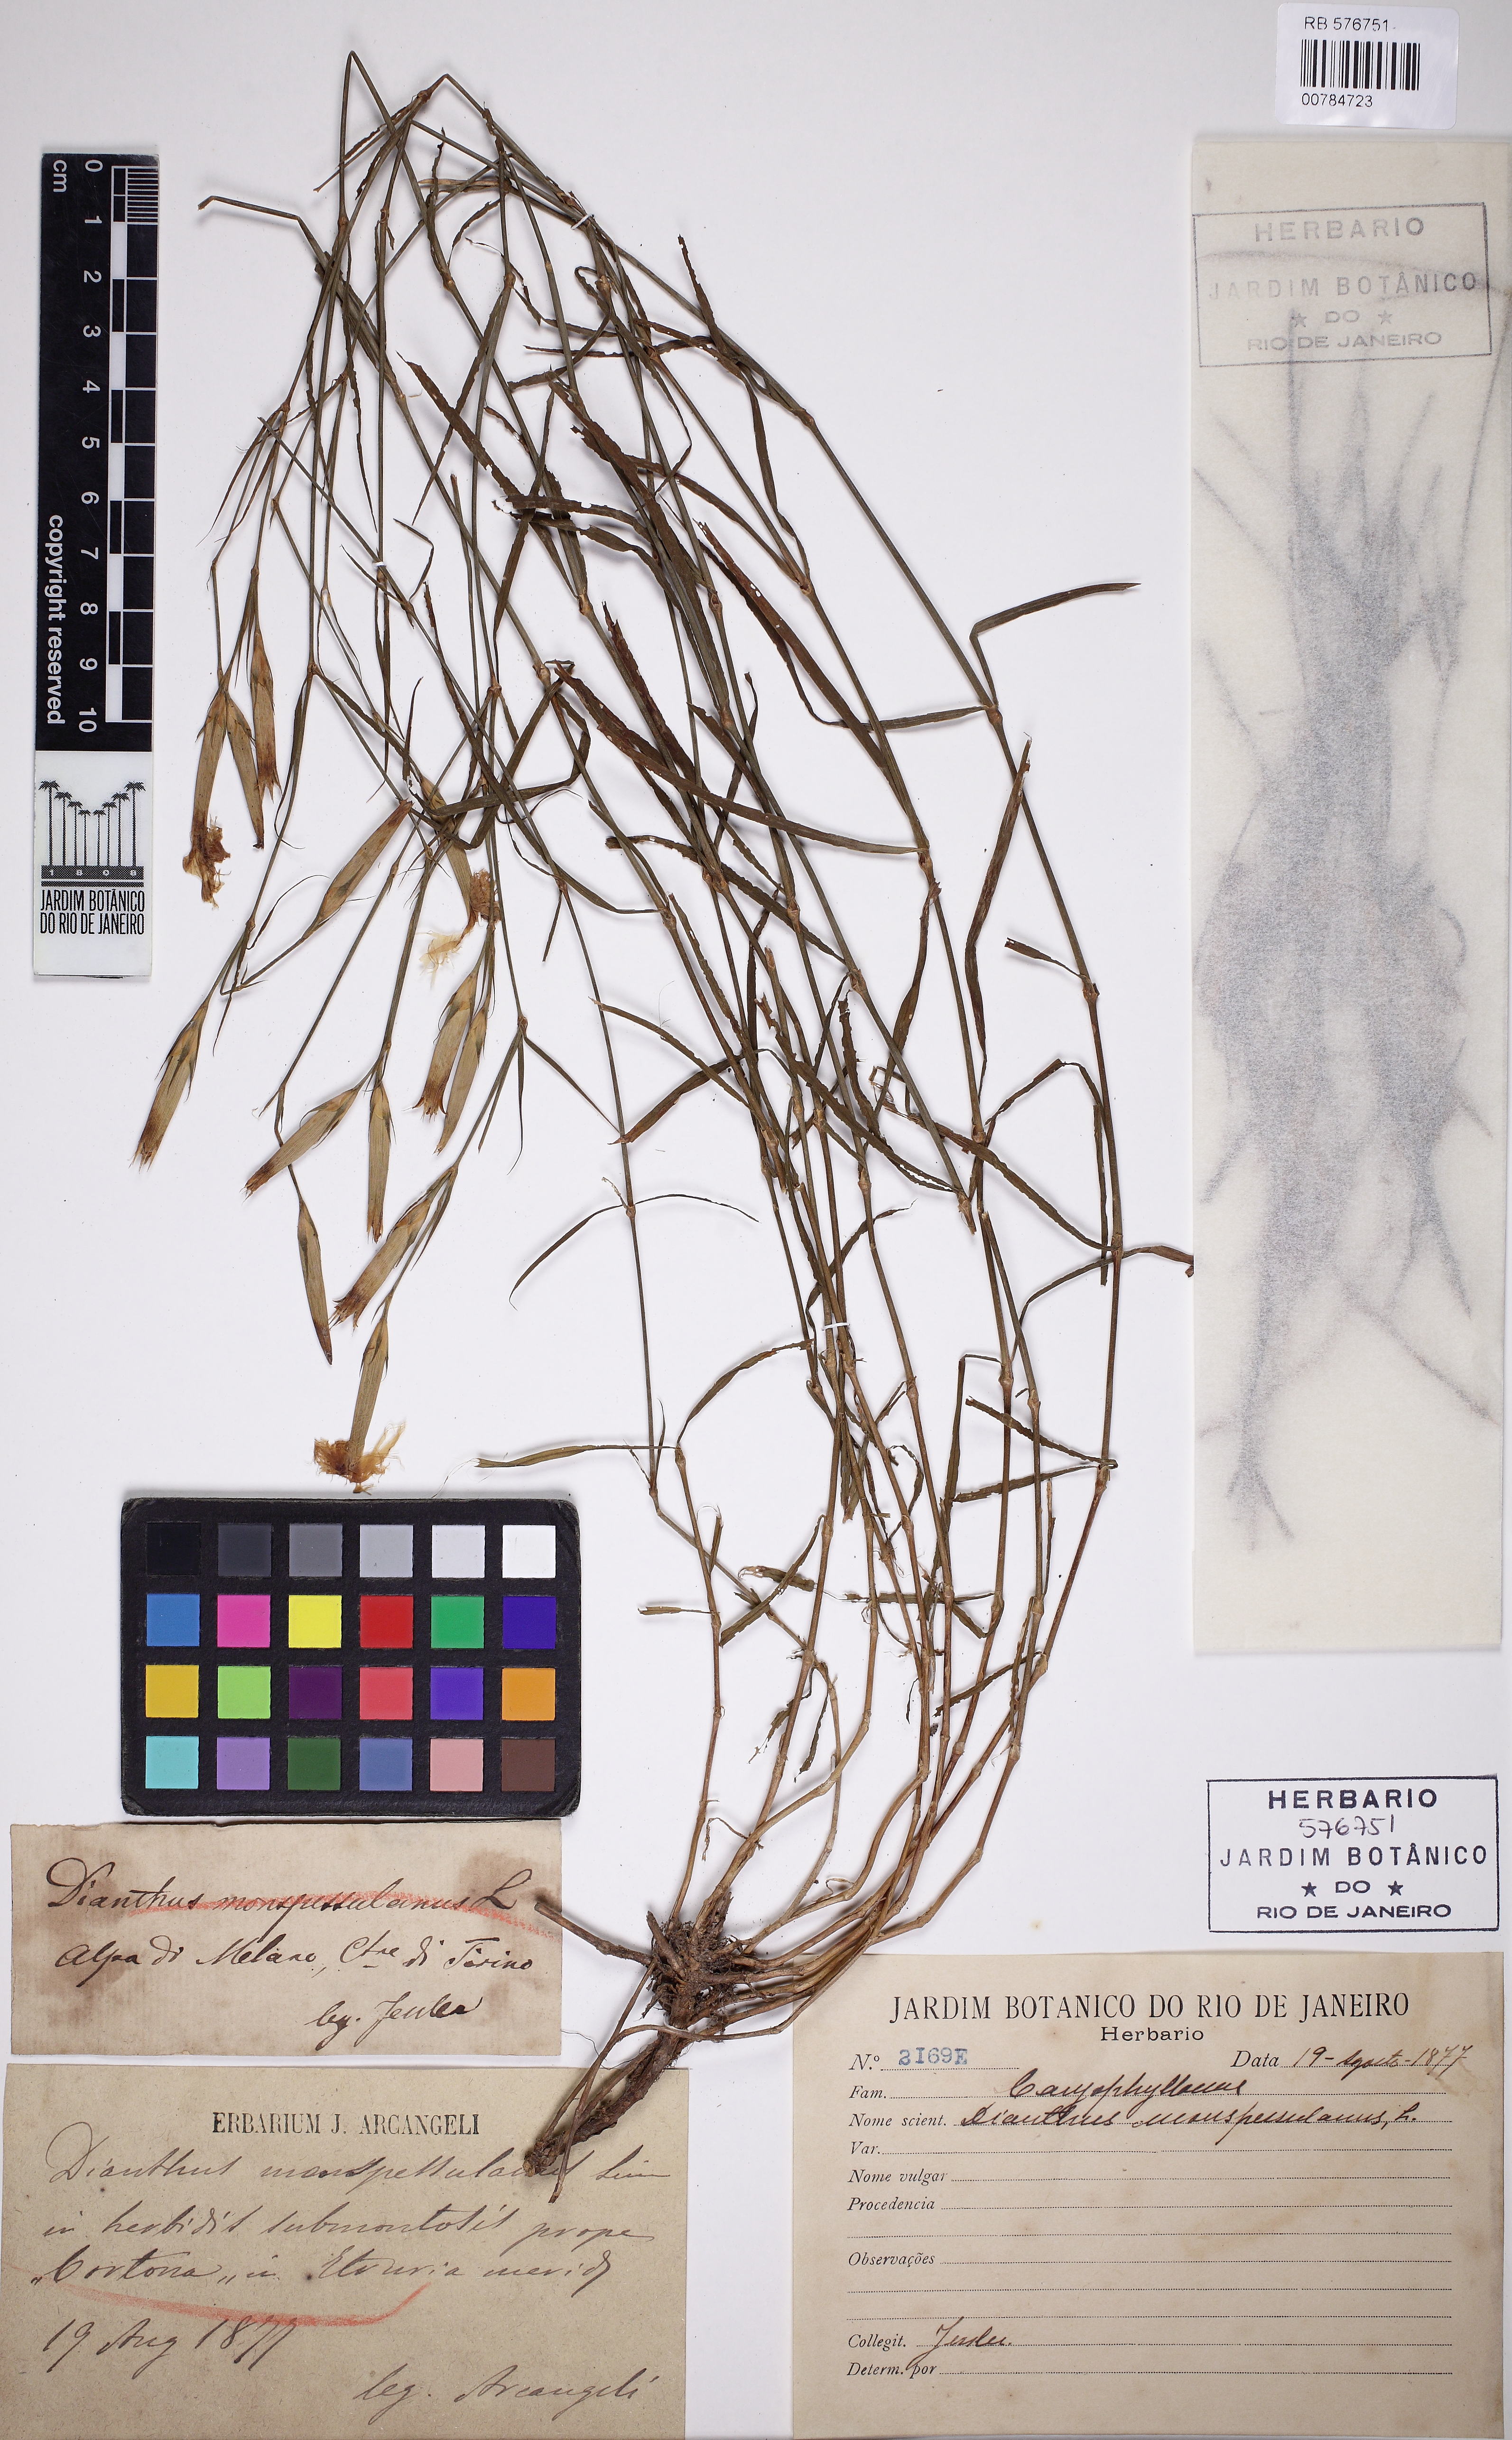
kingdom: Plantae
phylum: Tracheophyta
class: Magnoliopsida
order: Caryophyllales
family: Caryophyllaceae
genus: Dianthus
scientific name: Dianthus hyssopifolius
